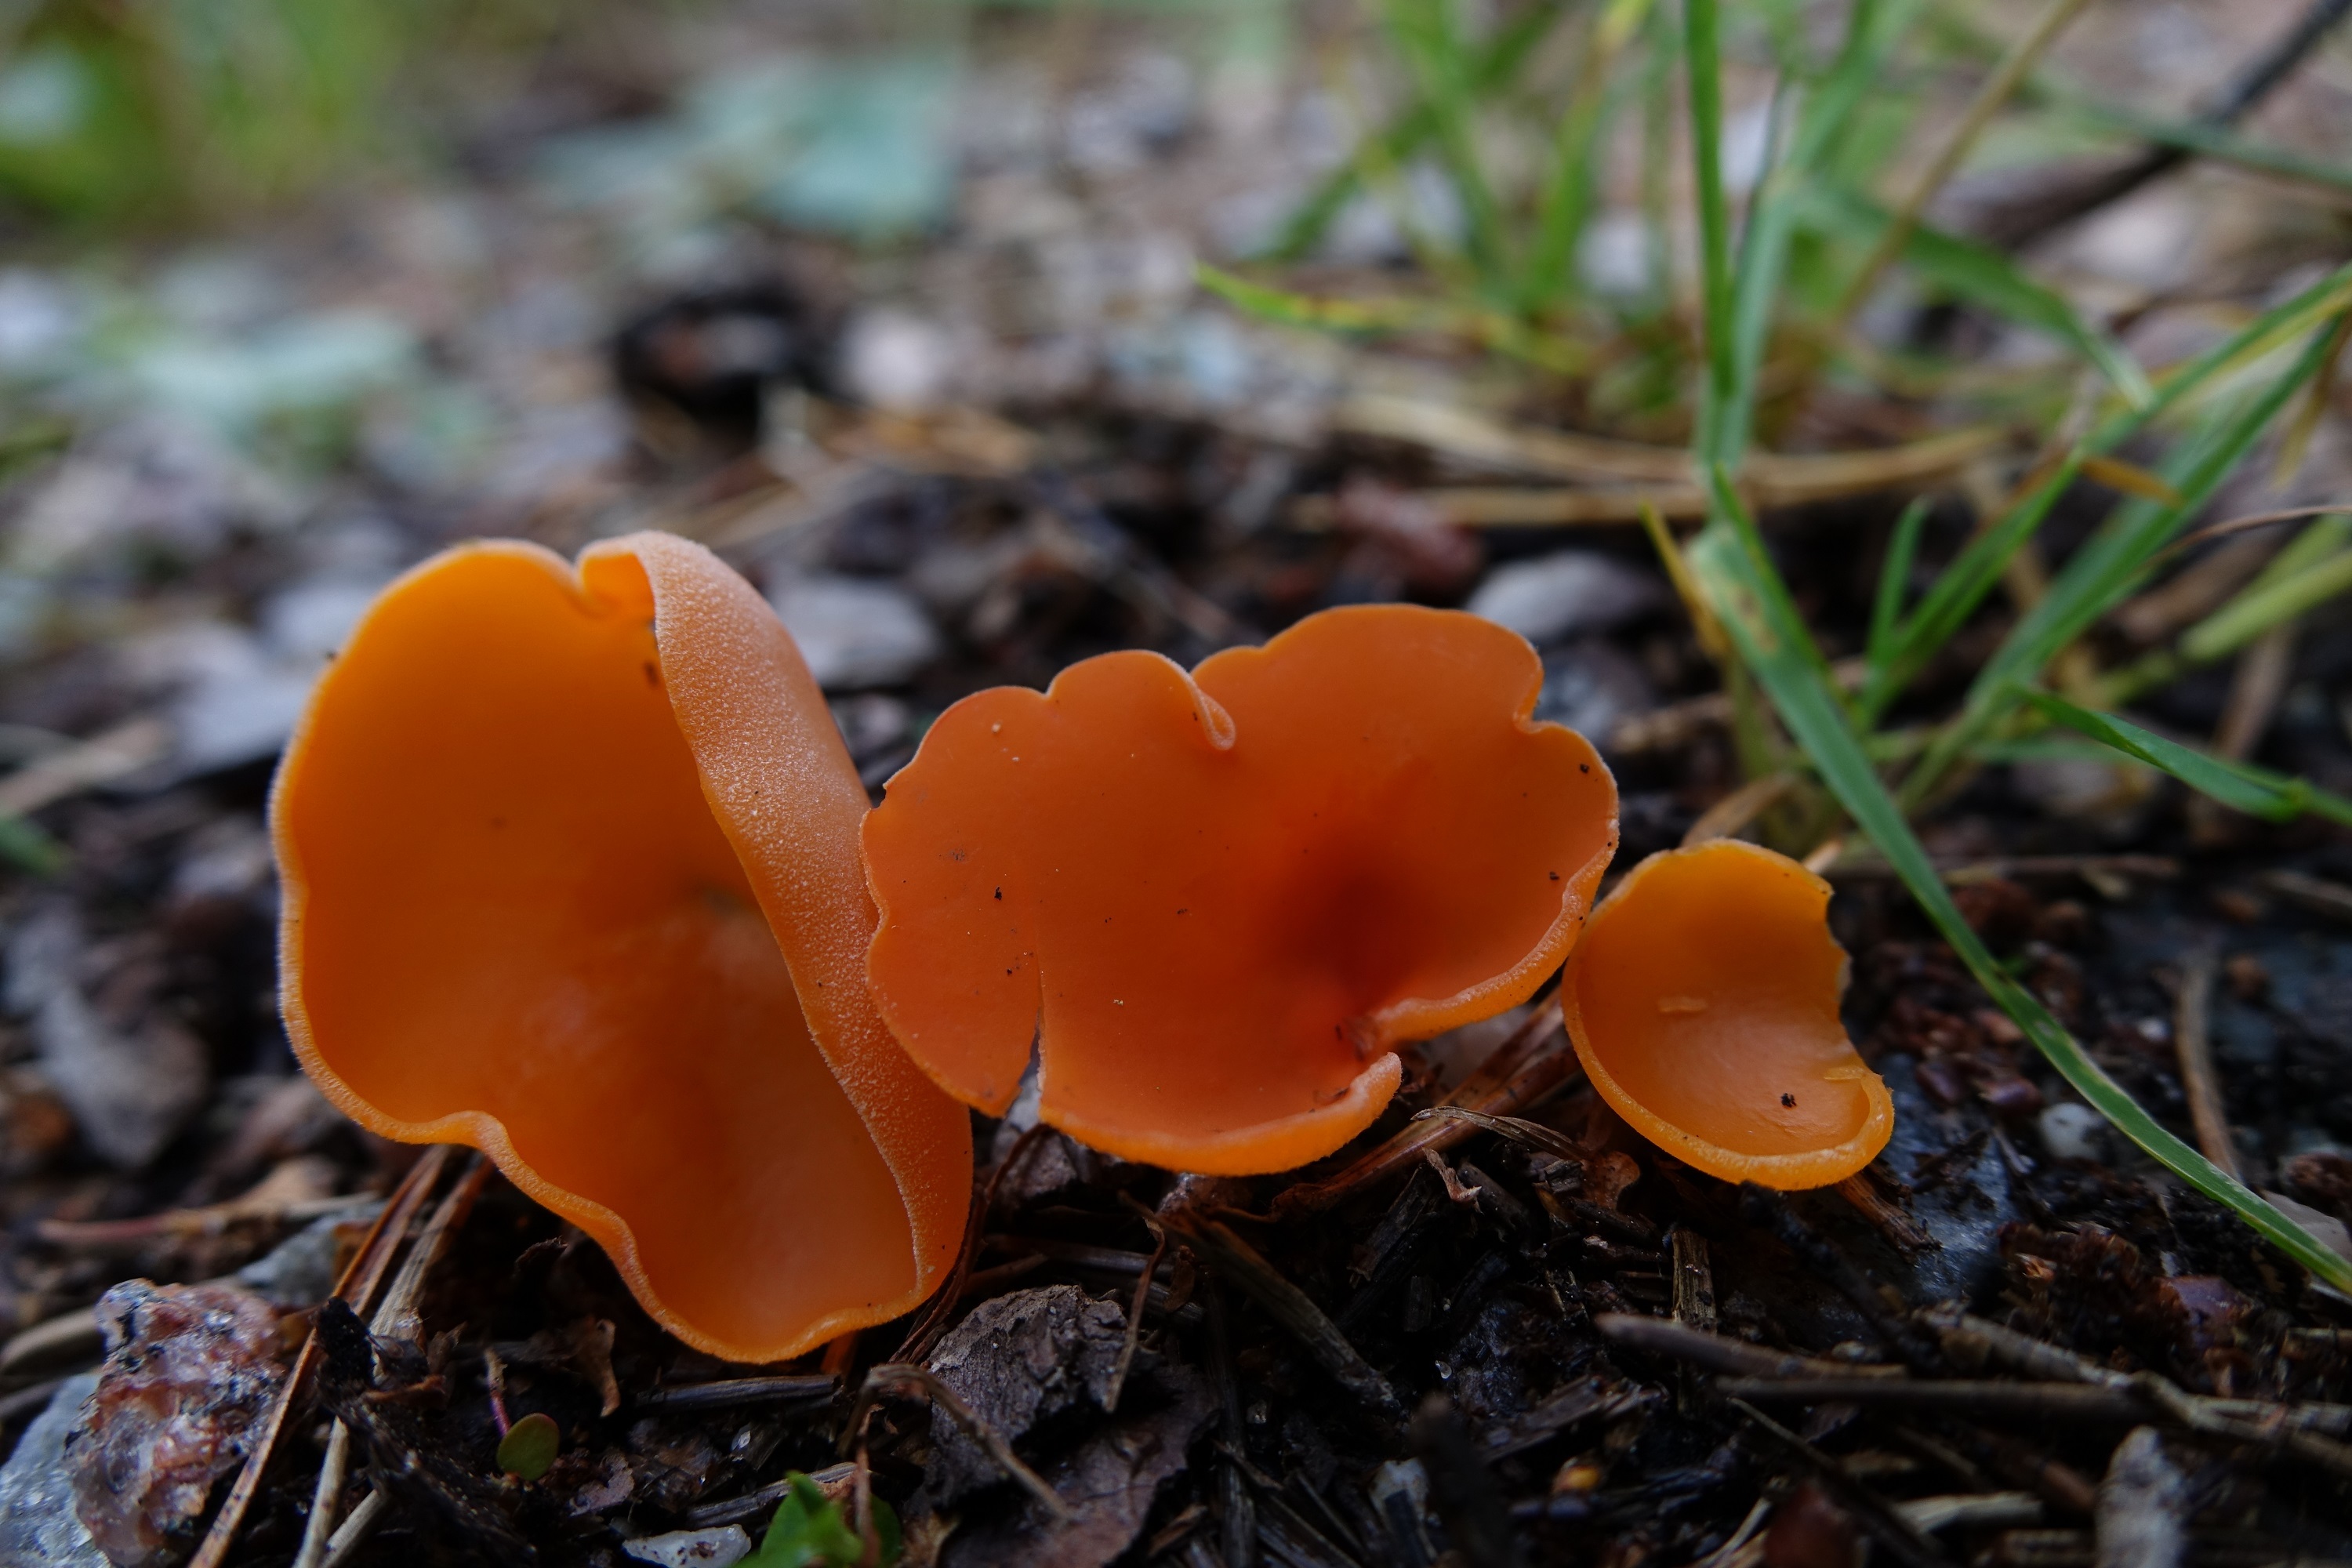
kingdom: Fungi
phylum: Ascomycota
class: Pezizomycetes
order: Pezizales
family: Pyronemataceae
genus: Aleuria
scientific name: Aleuria aurantia
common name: Orange peel fungus
